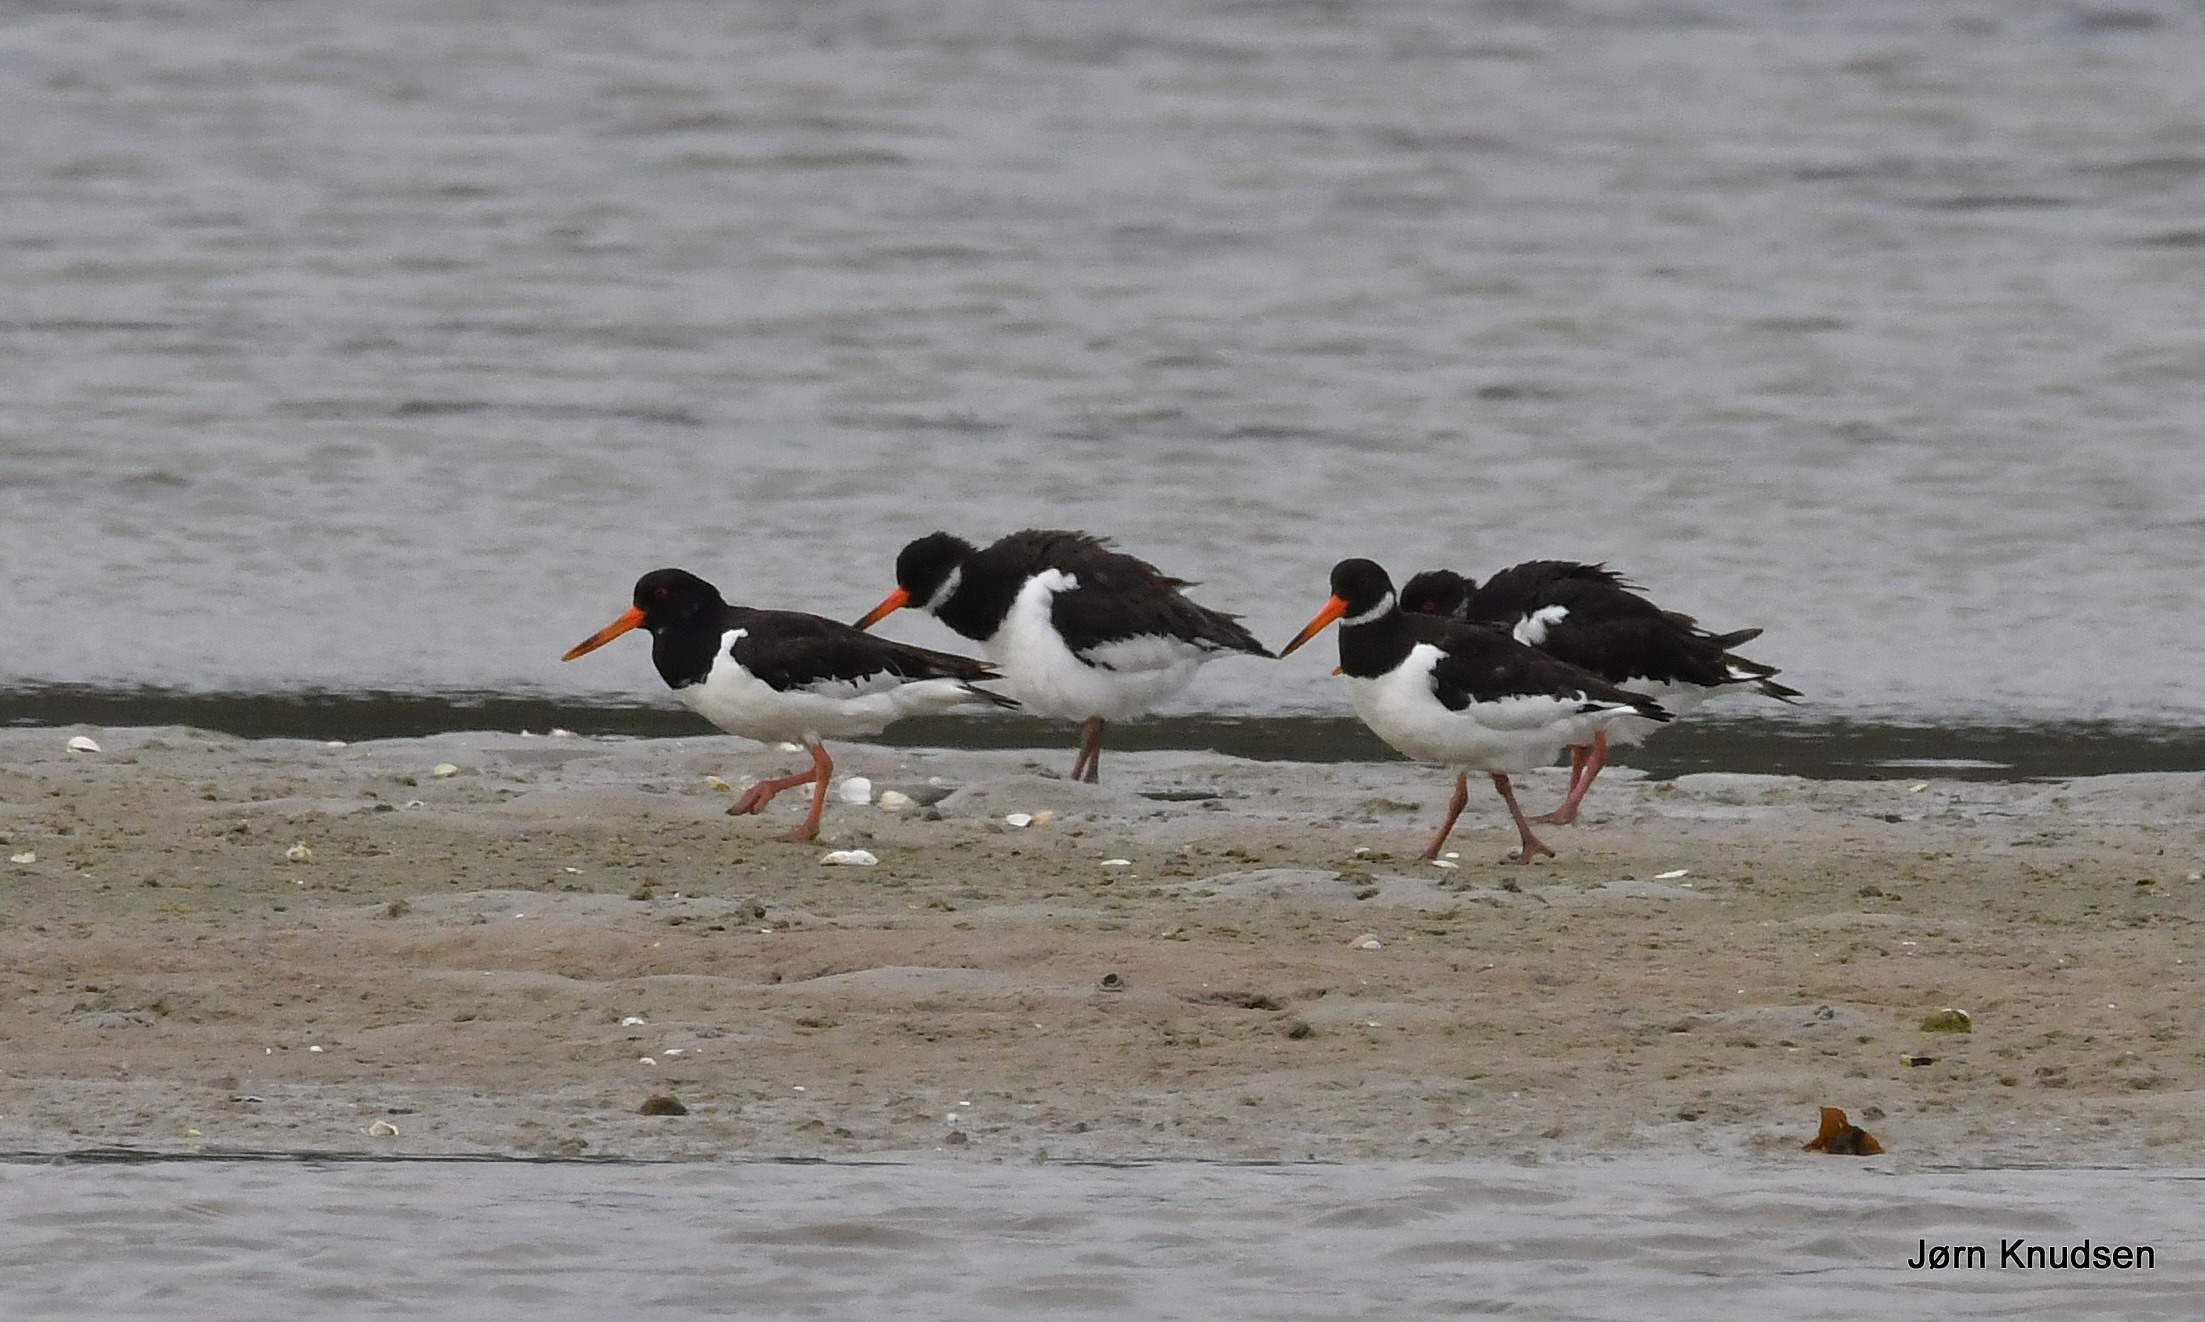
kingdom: Animalia
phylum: Chordata
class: Aves
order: Charadriiformes
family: Haematopodidae
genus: Haematopus
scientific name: Haematopus ostralegus
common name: Strandskade
